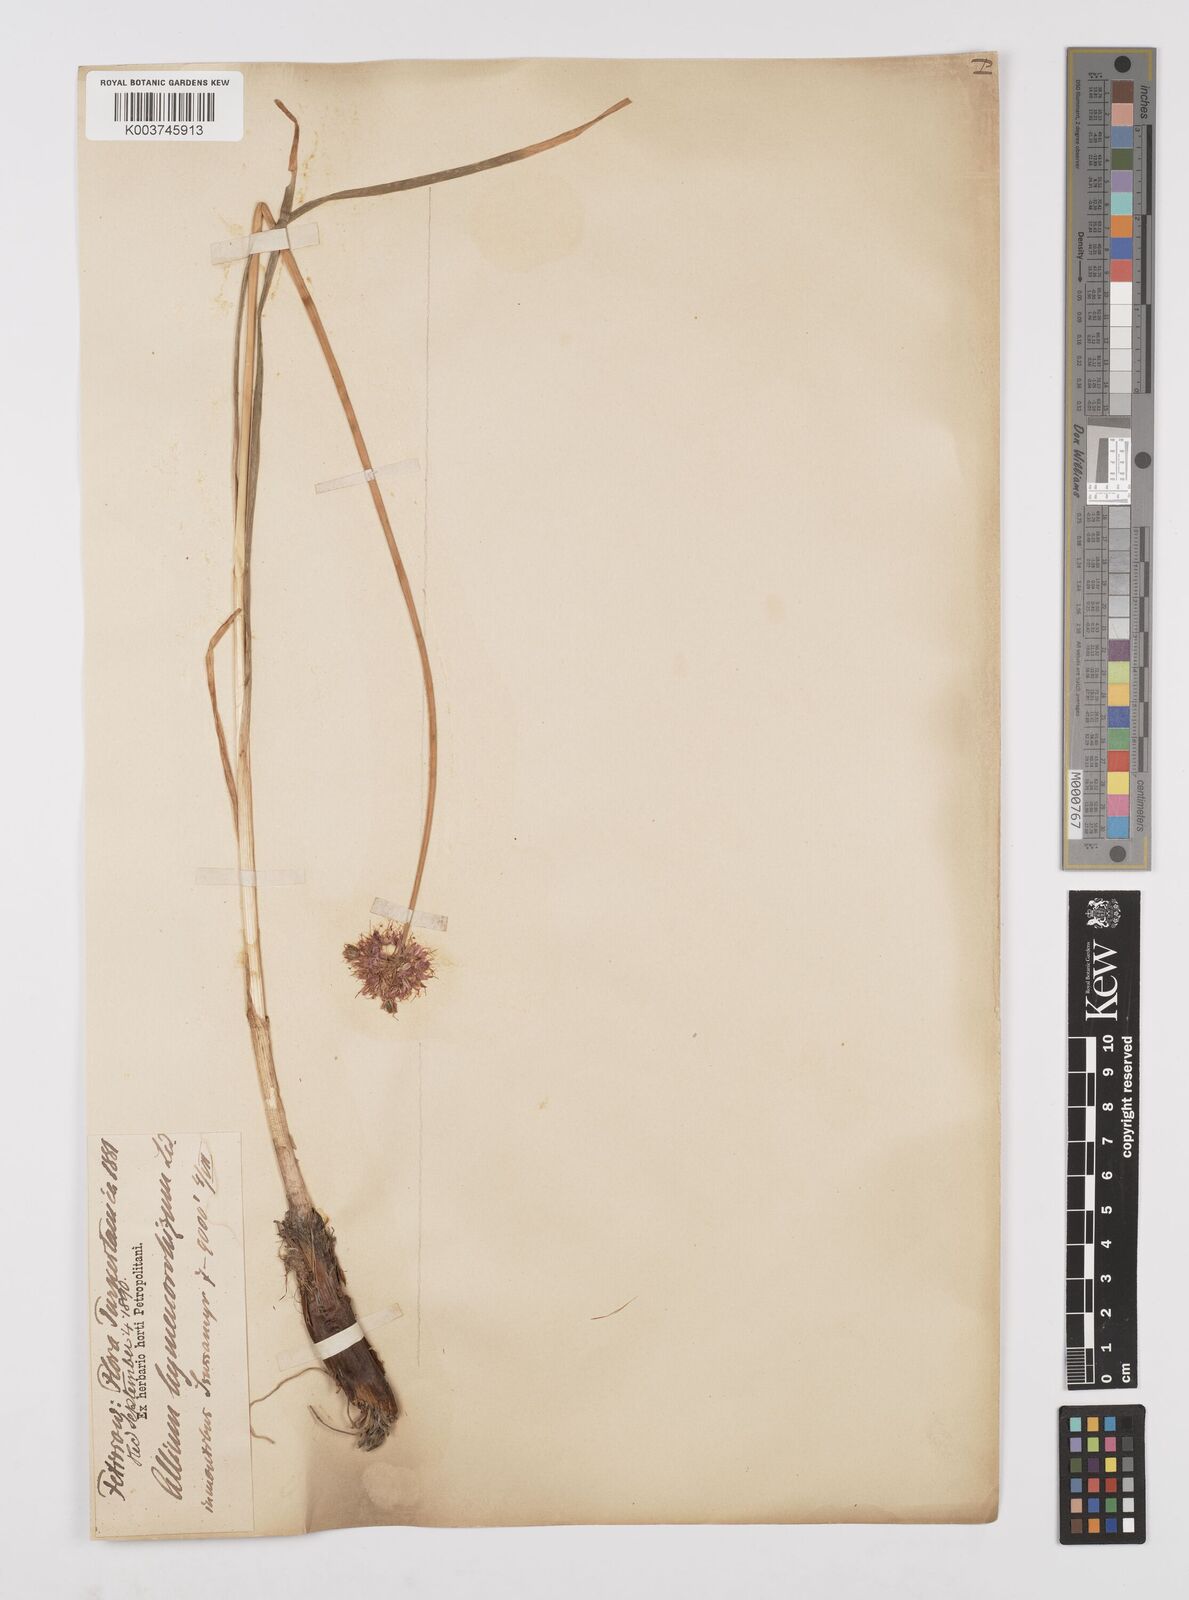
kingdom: Plantae
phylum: Tracheophyta
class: Liliopsida
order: Asparagales
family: Amaryllidaceae
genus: Allium
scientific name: Allium hymenorhizum
